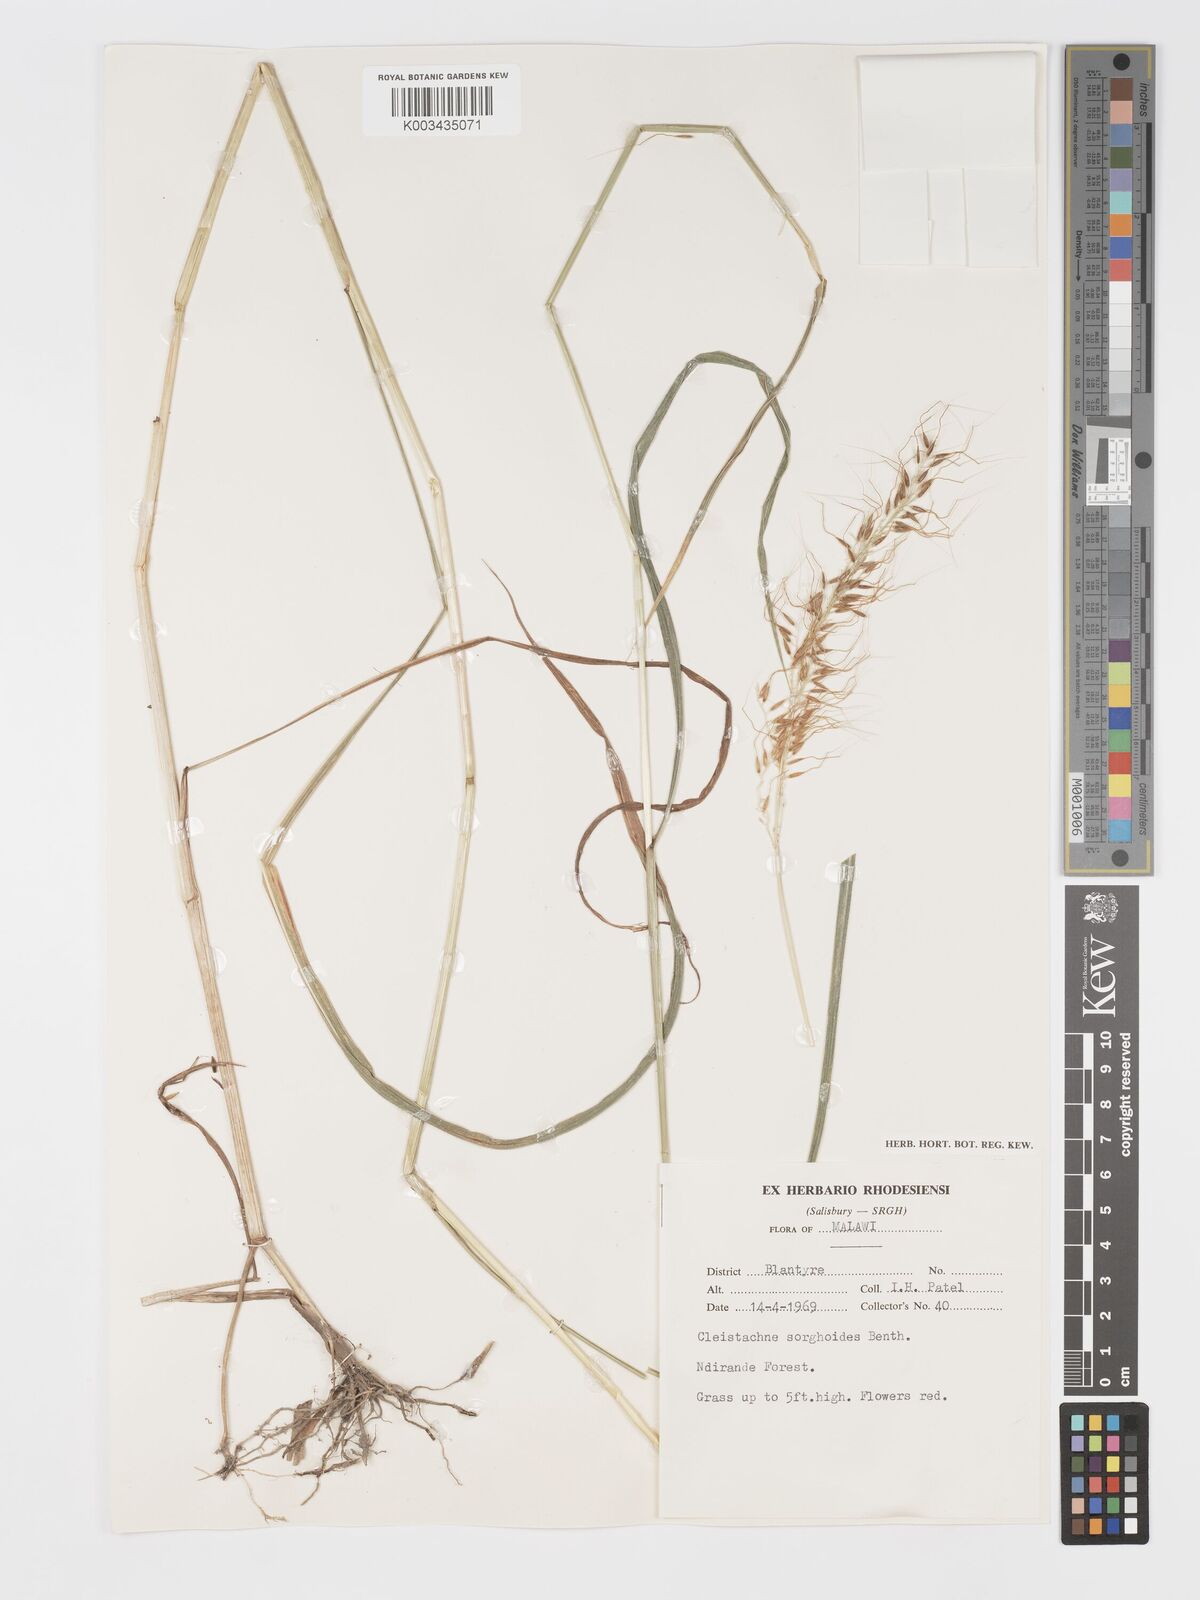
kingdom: Plantae
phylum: Tracheophyta
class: Liliopsida
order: Poales
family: Poaceae
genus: Cleistachne
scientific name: Cleistachne sorghoides
